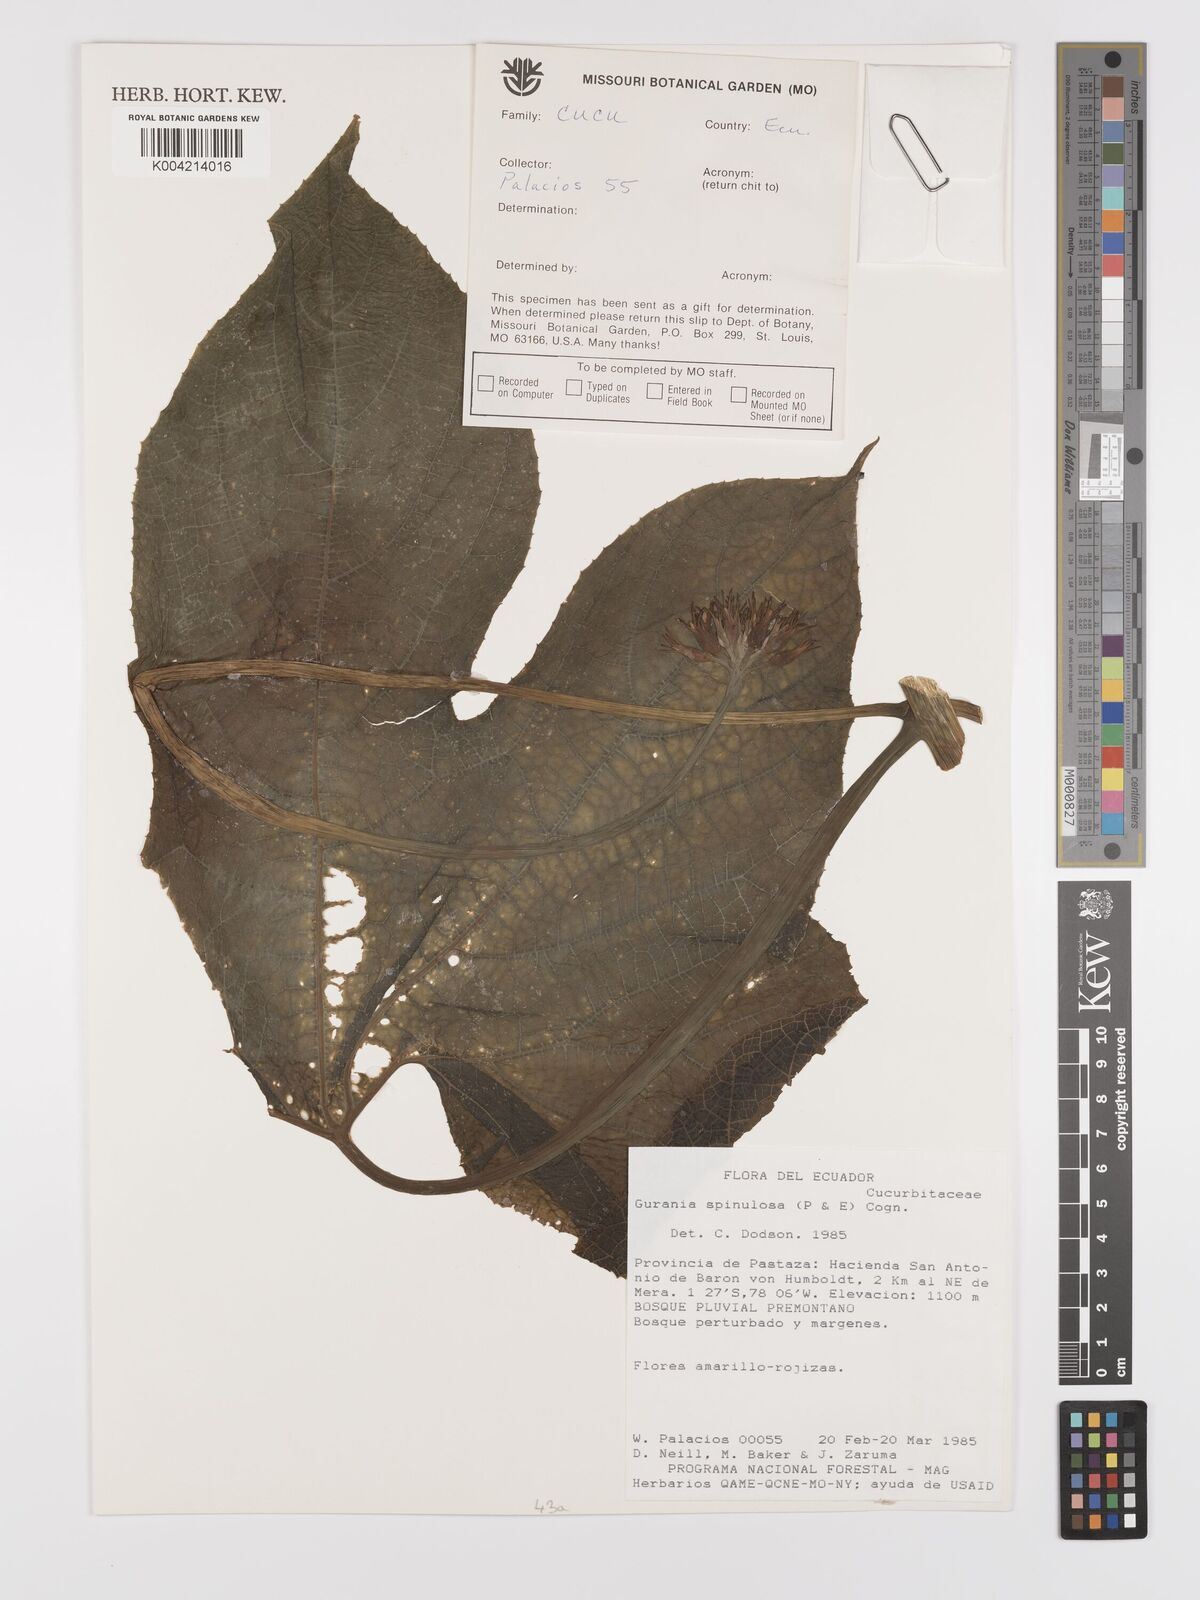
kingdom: Plantae
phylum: Tracheophyta
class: Magnoliopsida
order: Cucurbitales
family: Cucurbitaceae
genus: Gurania
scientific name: Gurania lobata
